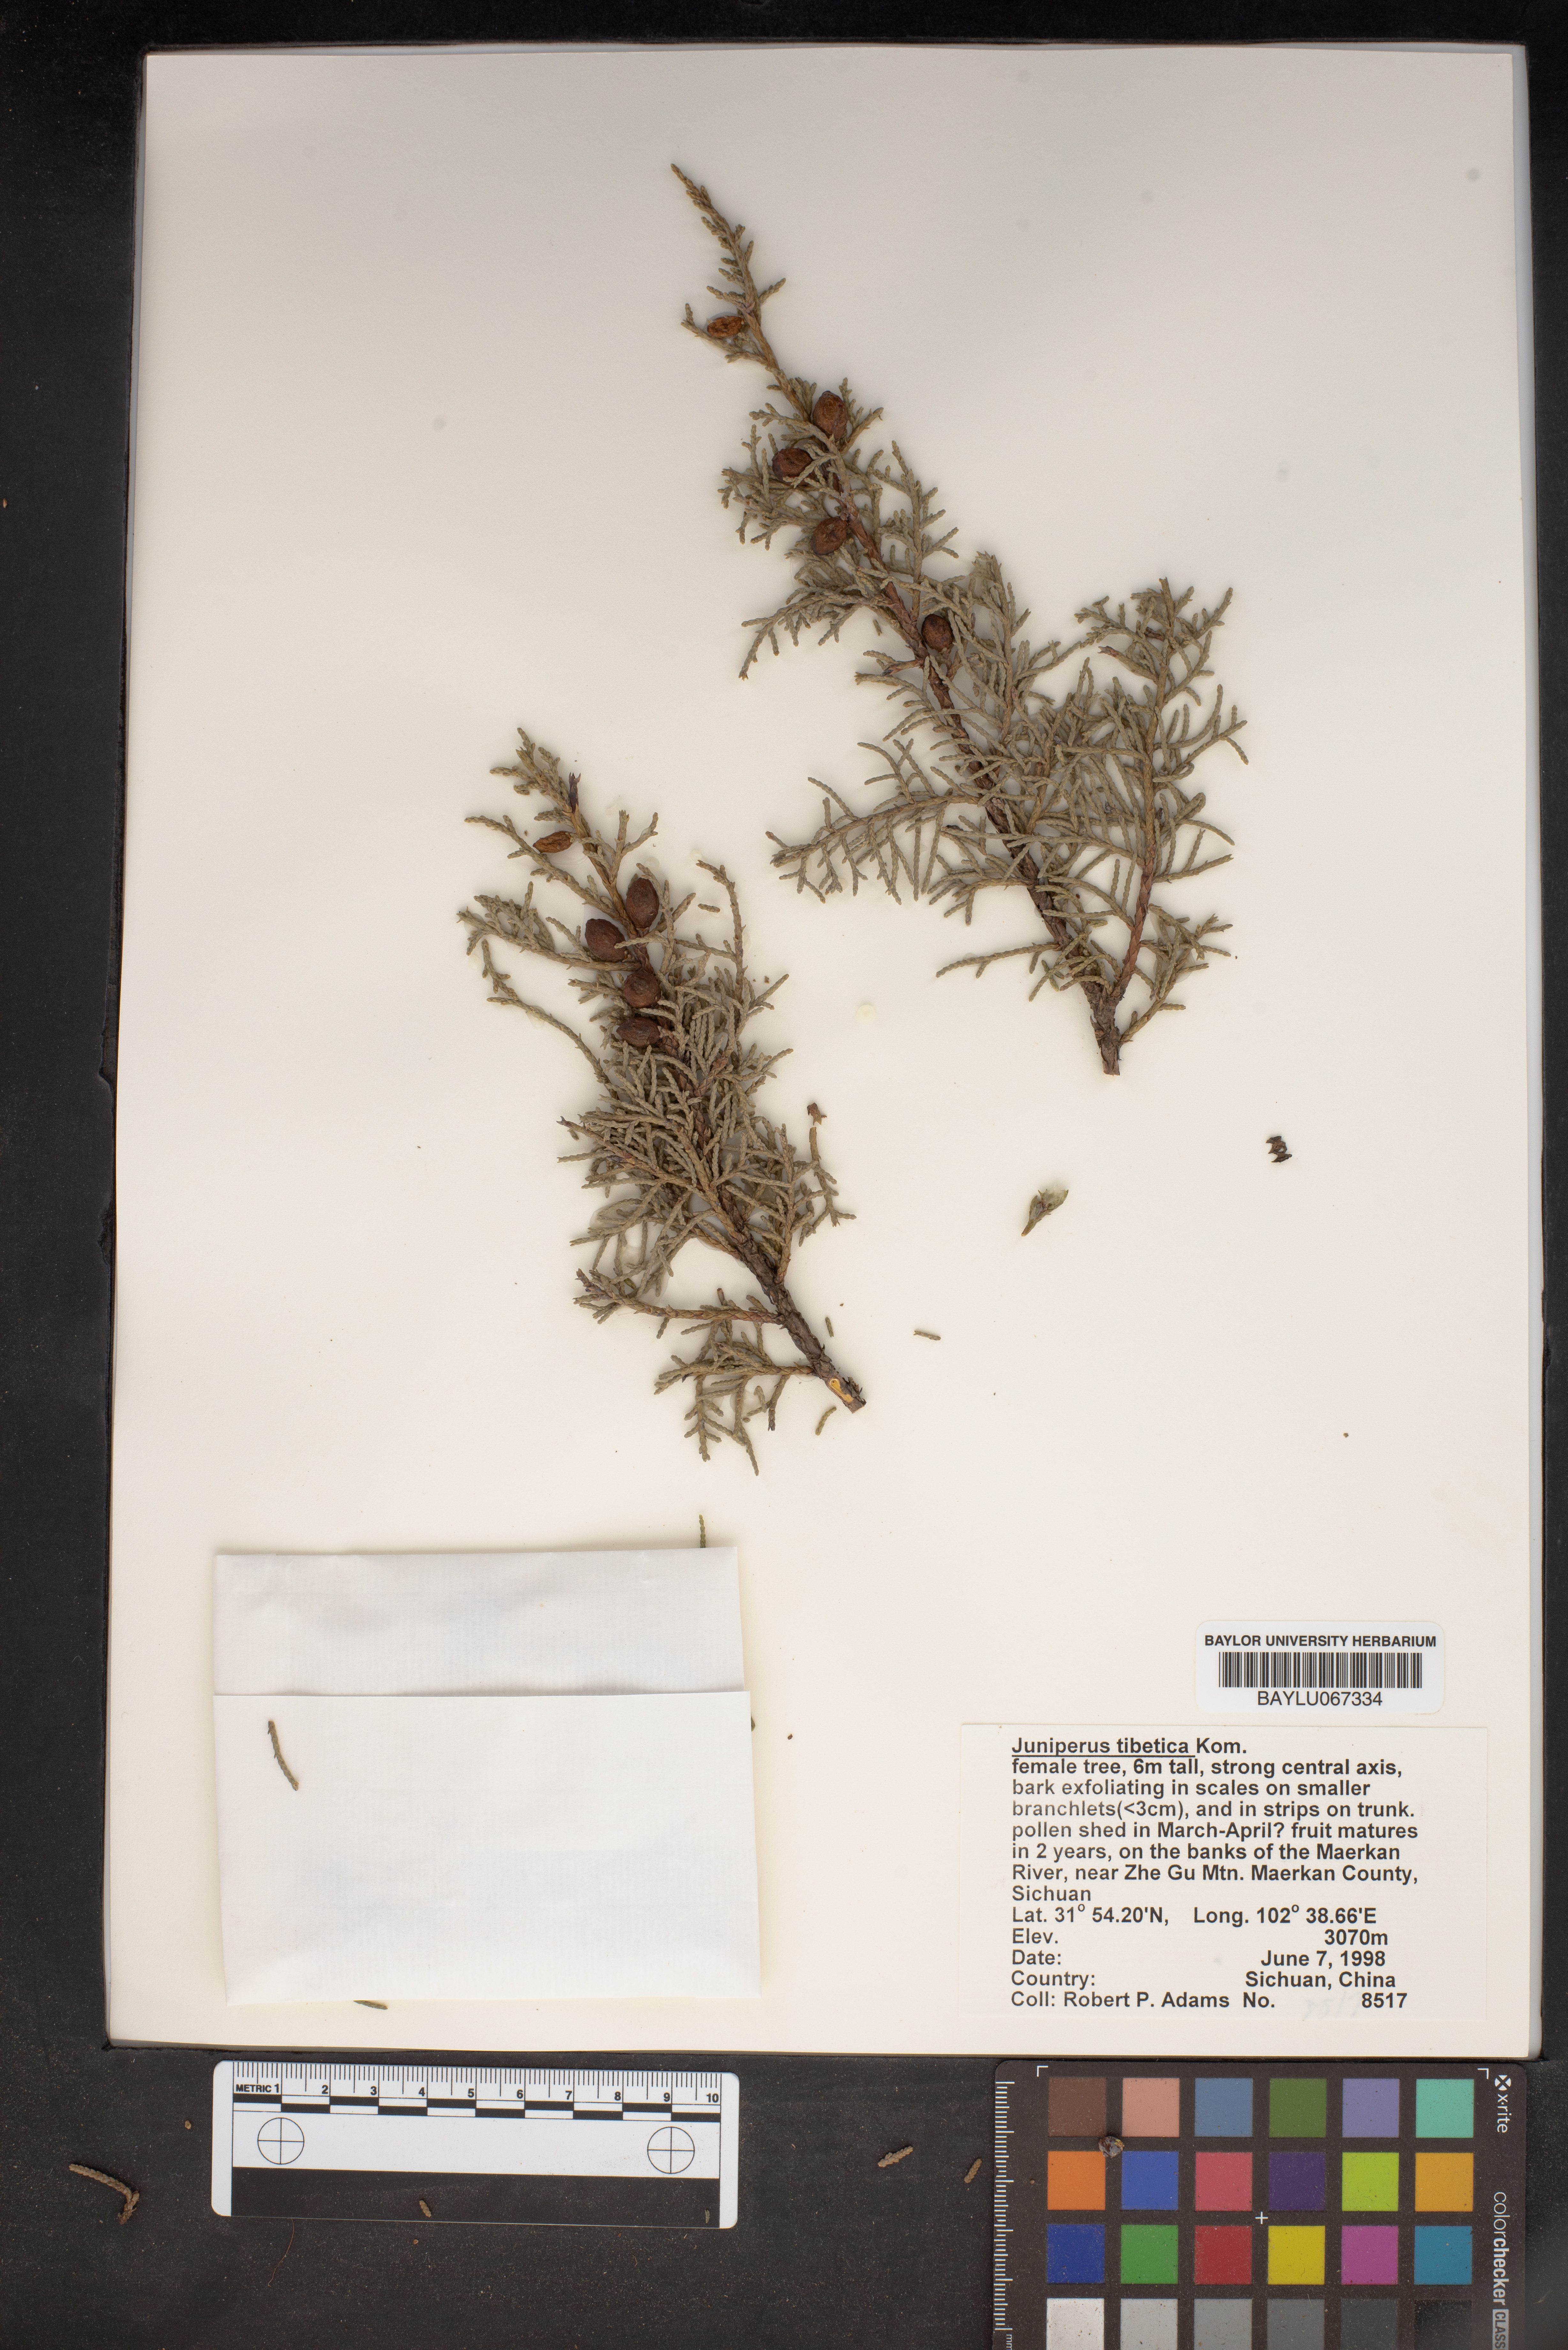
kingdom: Plantae
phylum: Tracheophyta
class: Pinopsida
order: Pinales
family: Cupressaceae
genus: Juniperus
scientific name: Juniperus tibetica
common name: Tibetan juniper
